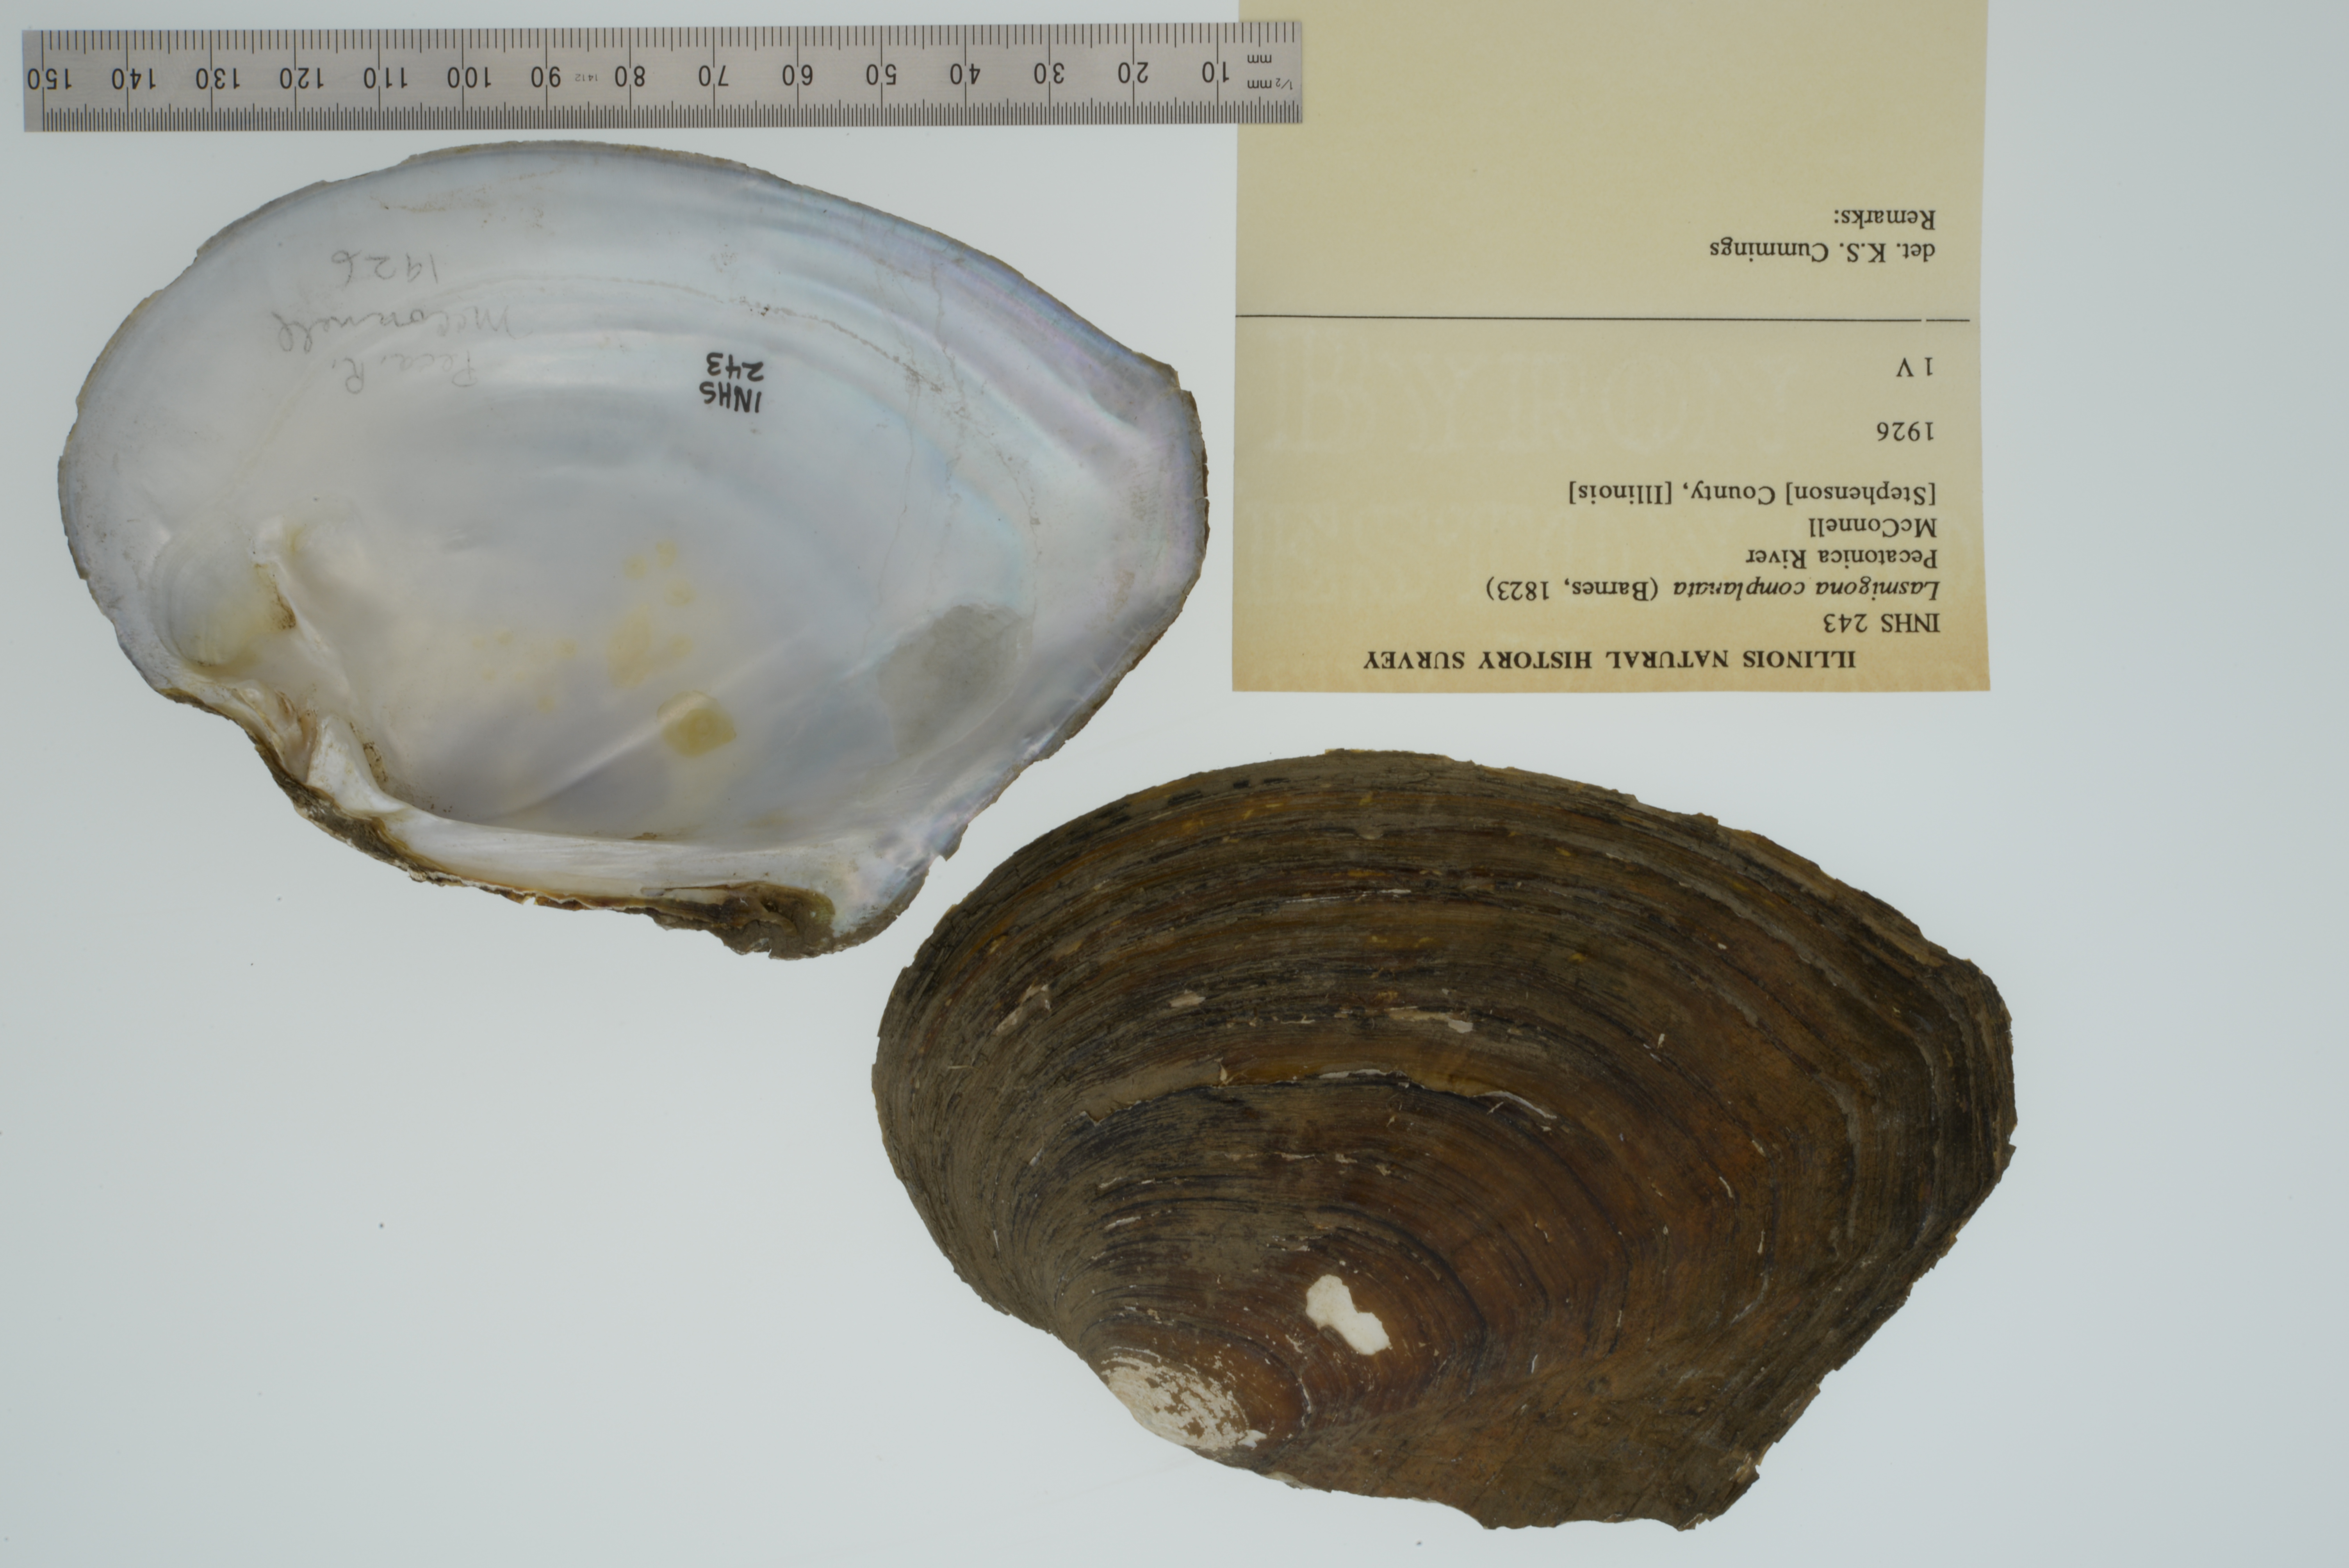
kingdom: Animalia
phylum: Mollusca
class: Bivalvia
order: Unionida
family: Unionidae
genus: Lasmigona
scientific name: Lasmigona complanata
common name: White heelsplitter
